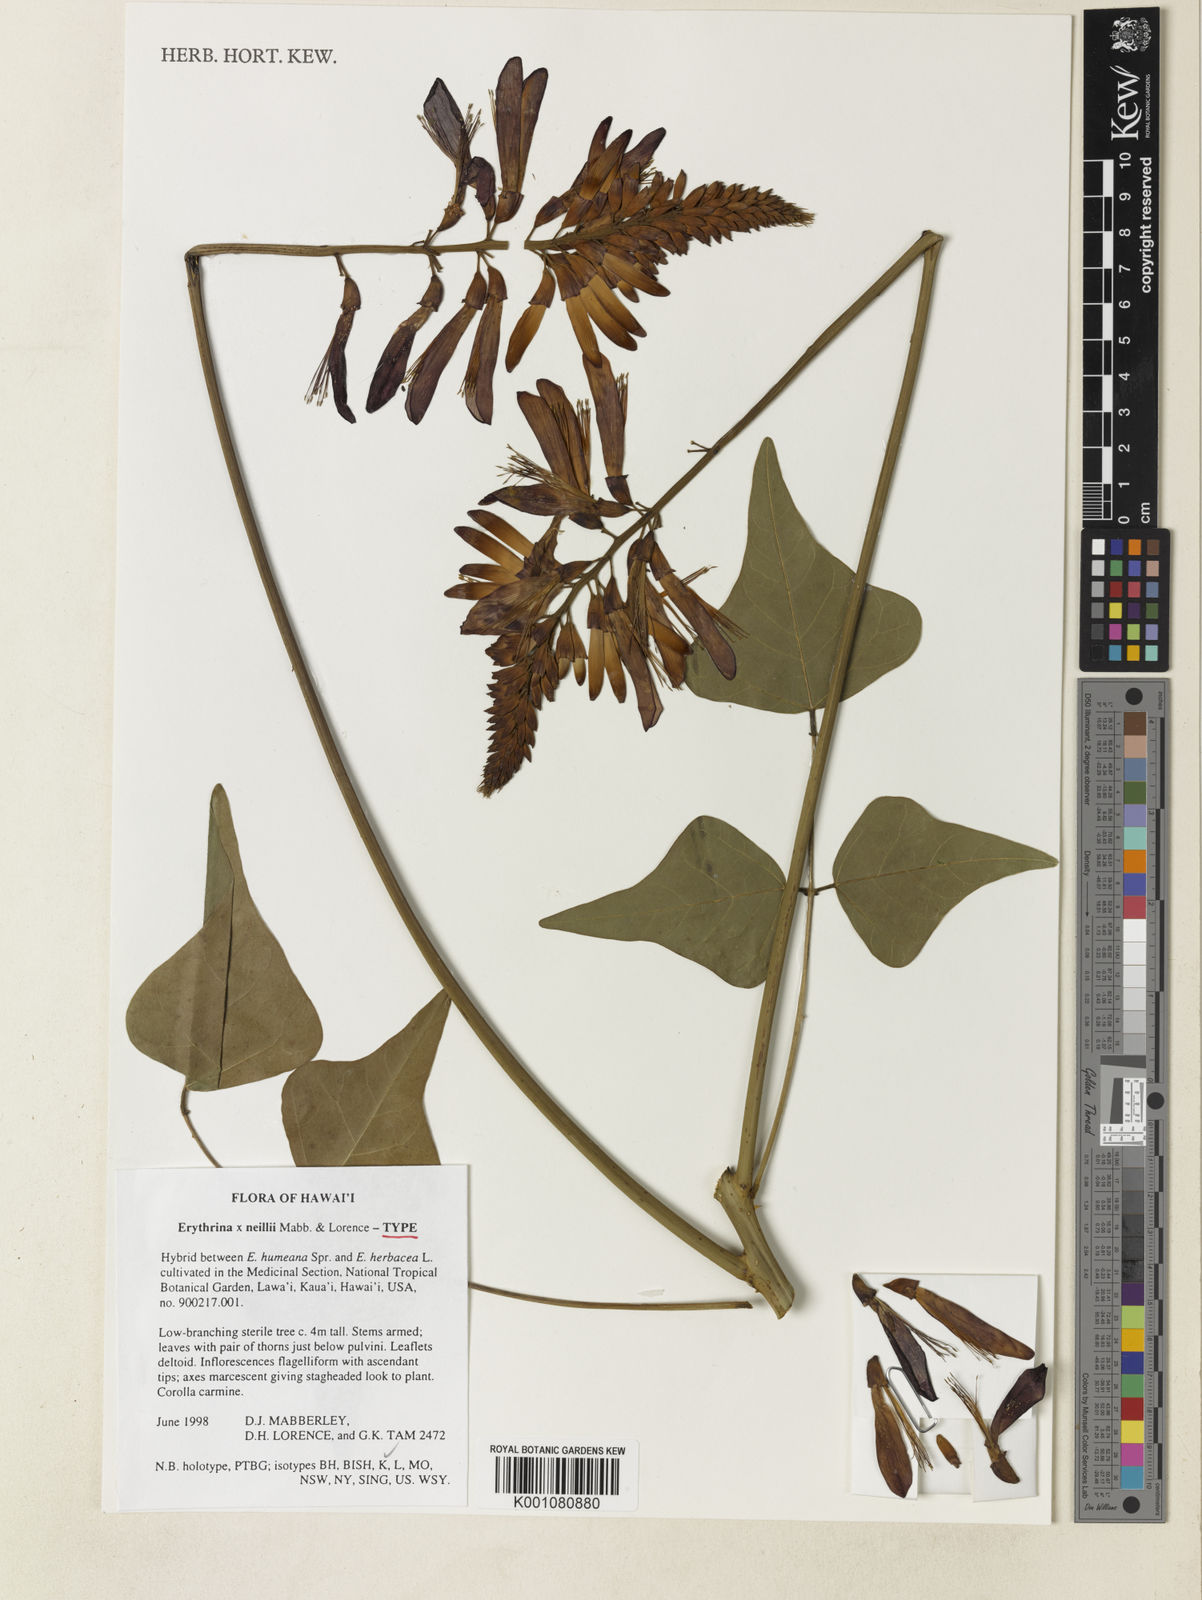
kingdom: Plantae
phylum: Tracheophyta
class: Magnoliopsida
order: Fabales
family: Fabaceae
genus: Erythrina
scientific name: Erythrina neillii
